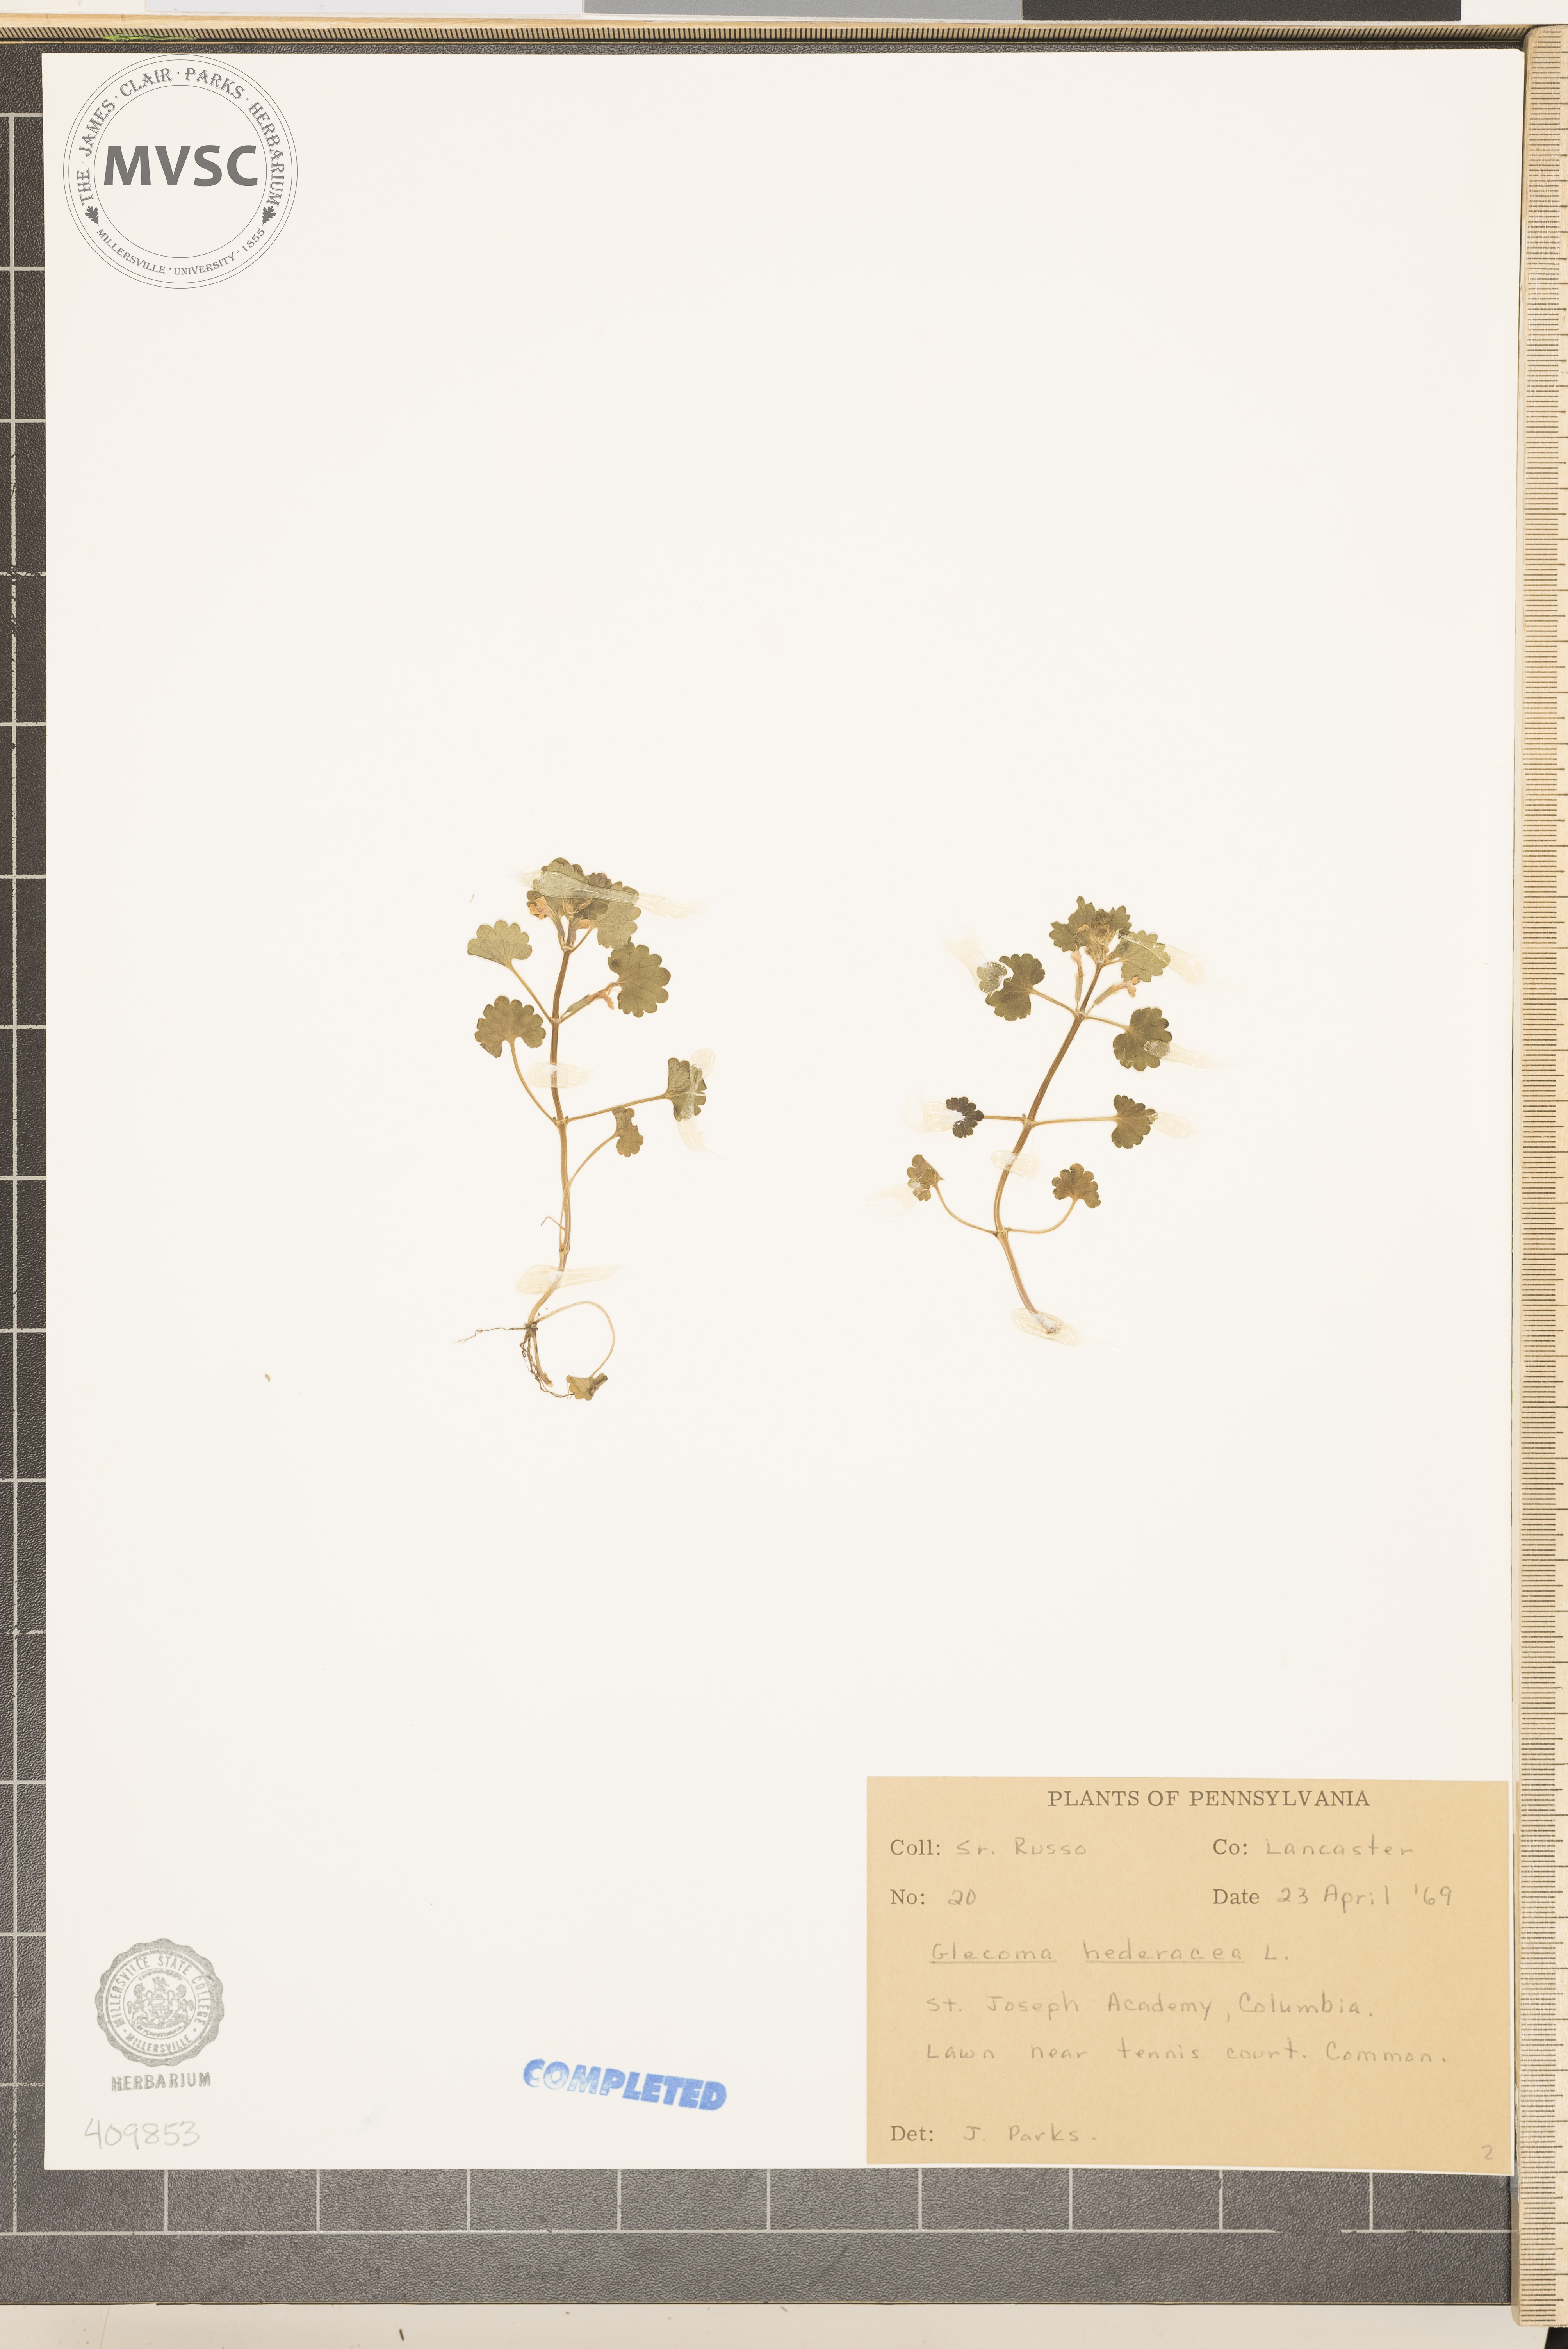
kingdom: Plantae
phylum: Tracheophyta
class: Magnoliopsida
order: Lamiales
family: Lamiaceae
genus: Glechoma
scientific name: Glechoma hederacea
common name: ground ivy
